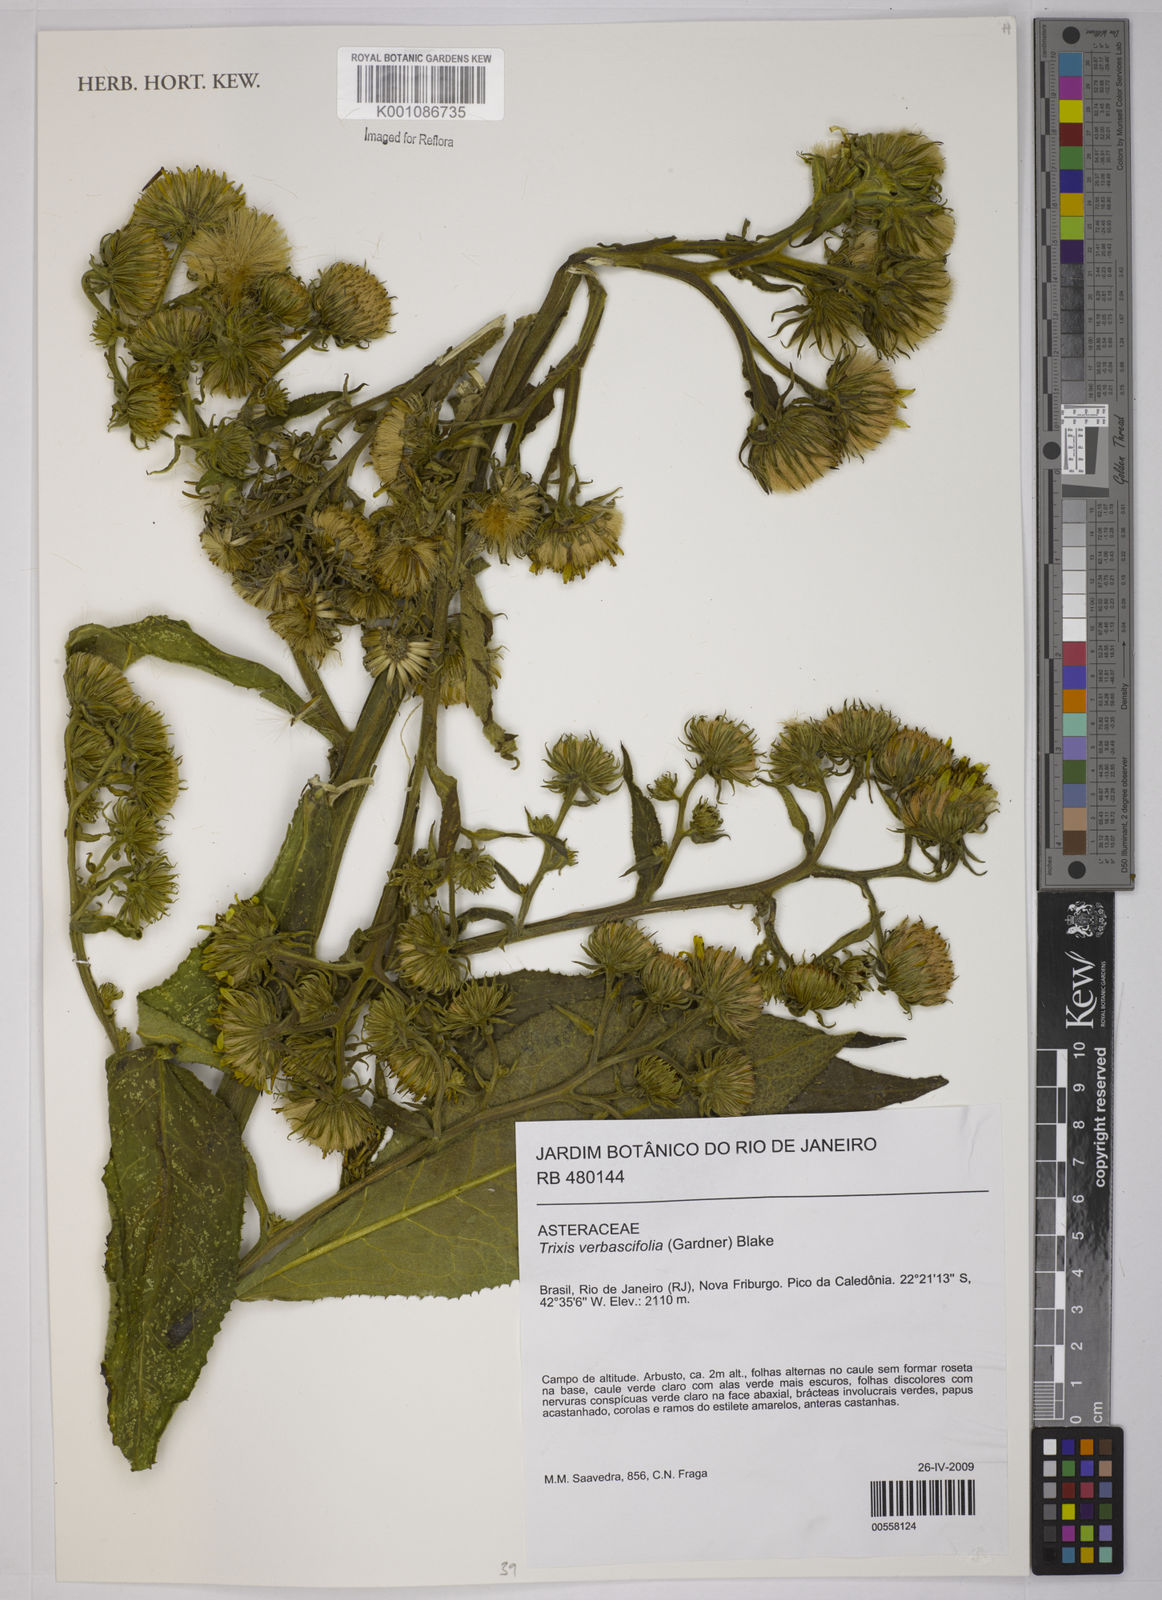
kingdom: Plantae
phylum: Tracheophyta
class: Magnoliopsida
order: Asterales
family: Asteraceae
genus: Trixis
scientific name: Trixis verbascifolia
